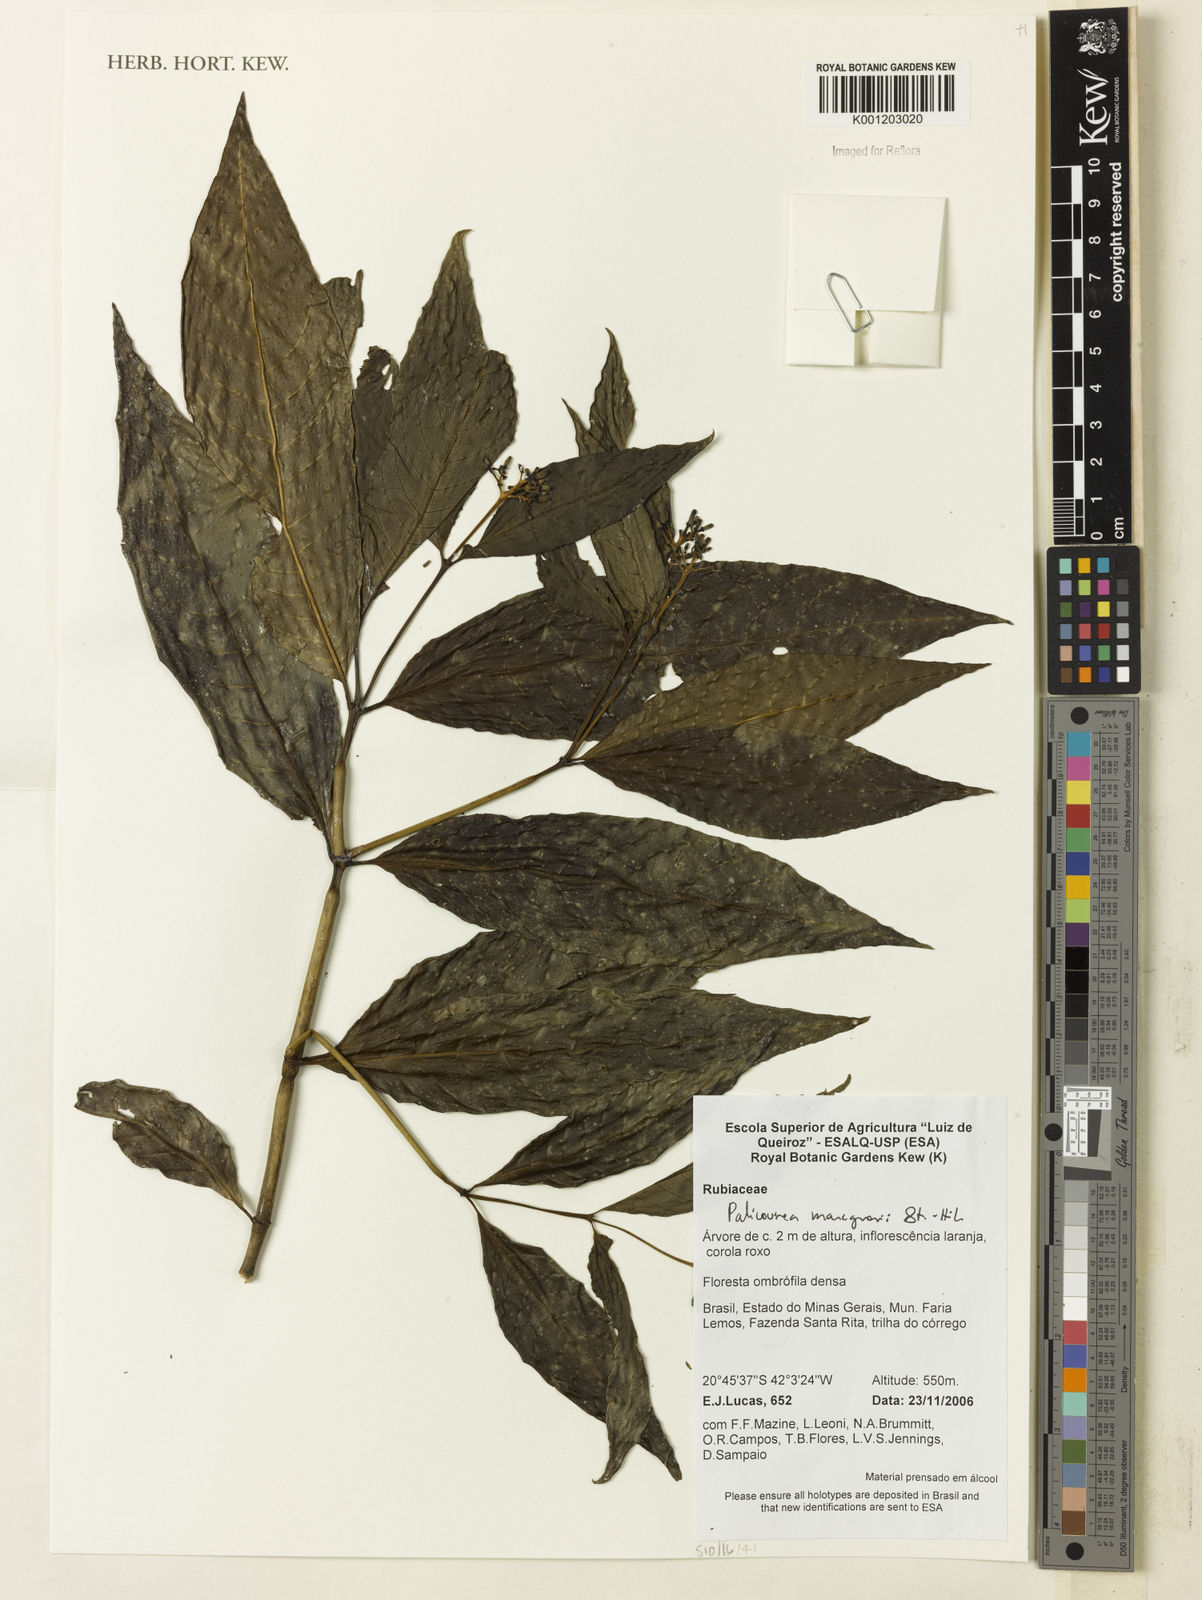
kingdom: Plantae
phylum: Tracheophyta
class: Magnoliopsida
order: Gentianales
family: Rubiaceae
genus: Palicourea
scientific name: Palicourea marcgravii
